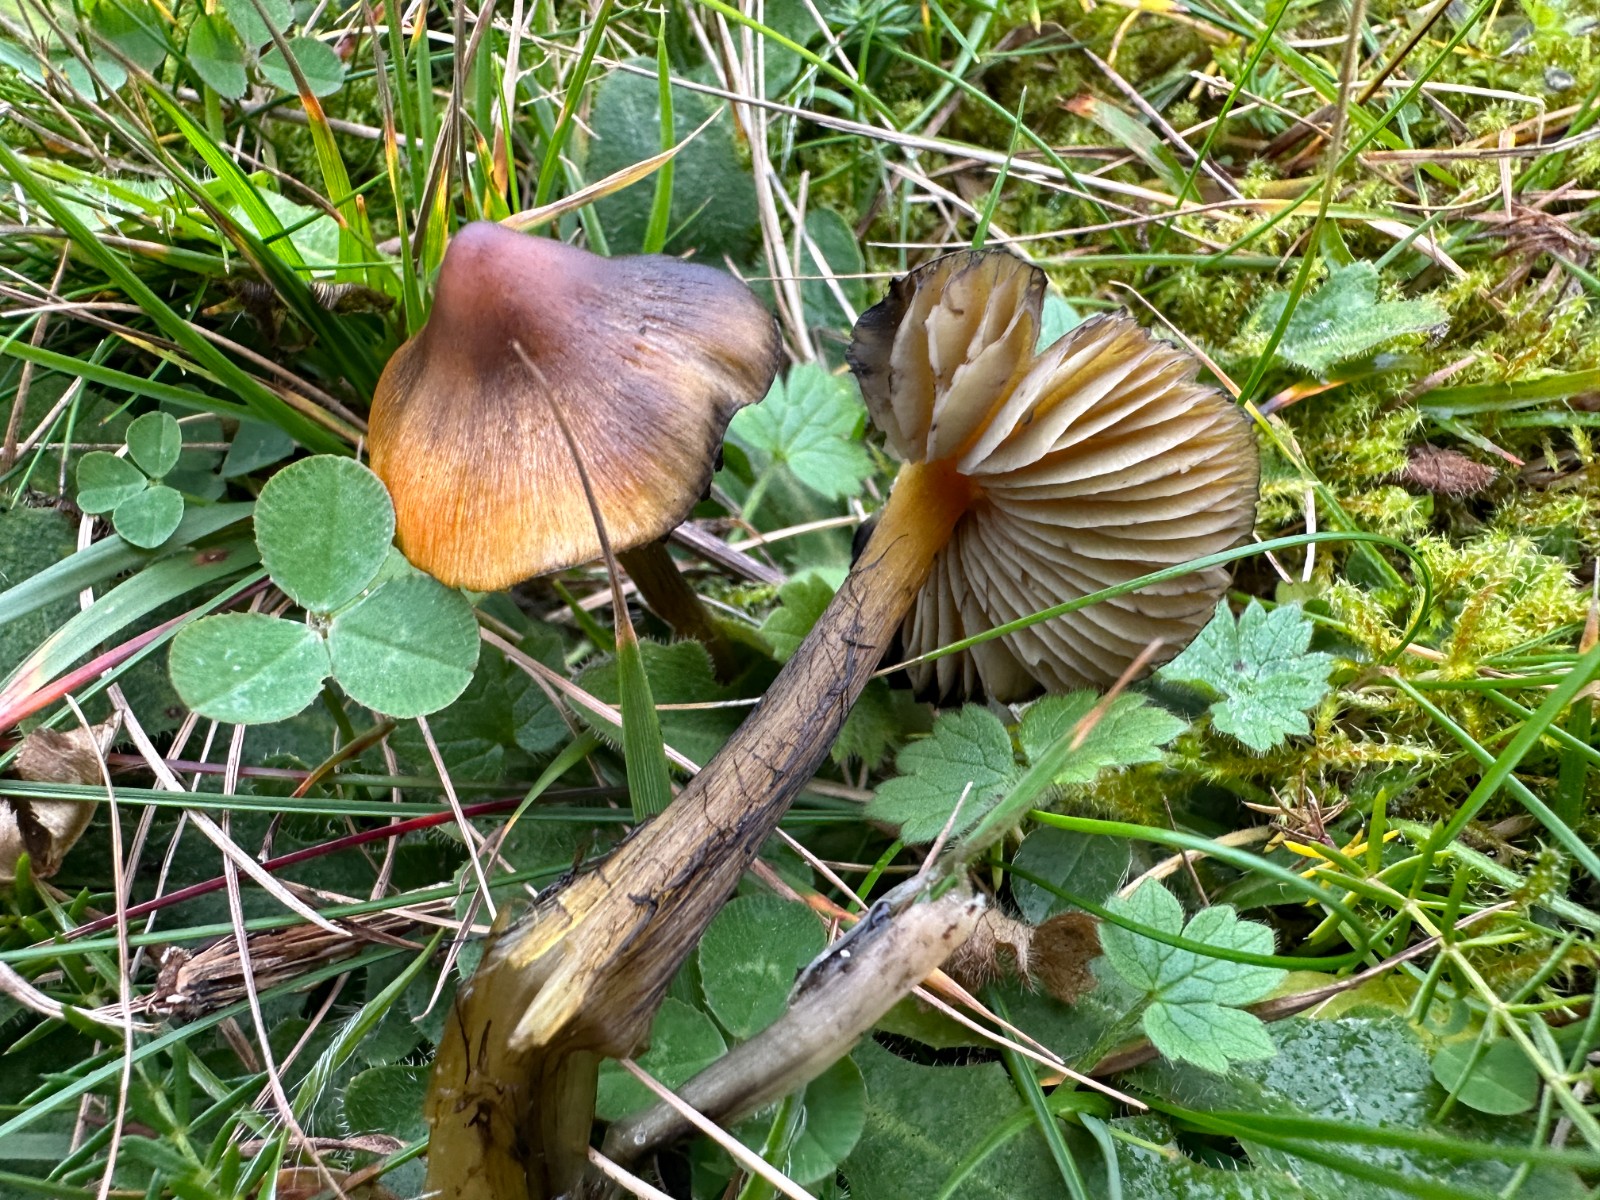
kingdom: Fungi
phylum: Basidiomycota
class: Agaricomycetes
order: Agaricales
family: Hygrophoraceae
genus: Hygrocybe
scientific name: Hygrocybe conica
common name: kegle-vokshat
